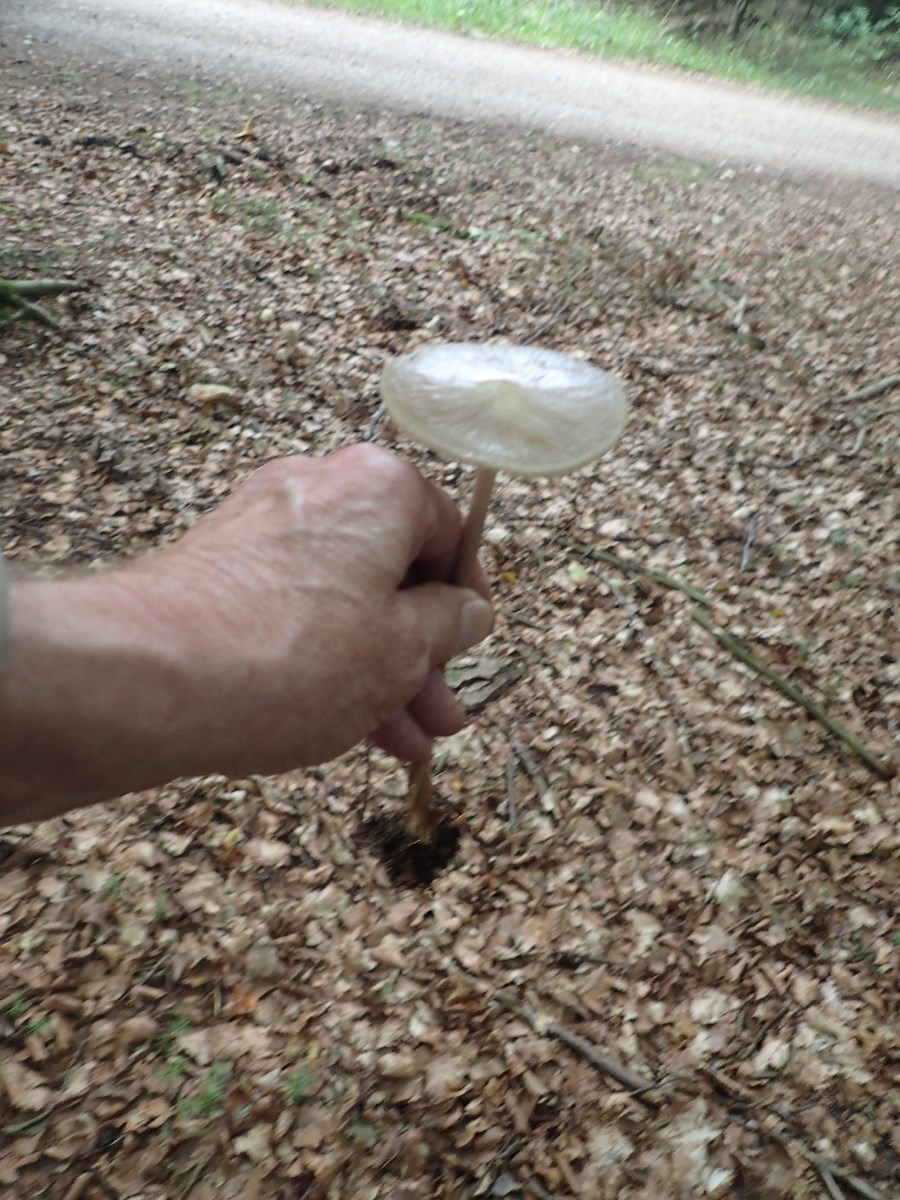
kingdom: Fungi
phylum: Basidiomycota
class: Agaricomycetes
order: Agaricales
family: Physalacriaceae
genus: Hymenopellis
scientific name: Hymenopellis radicata
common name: almindelig pælerodshat
